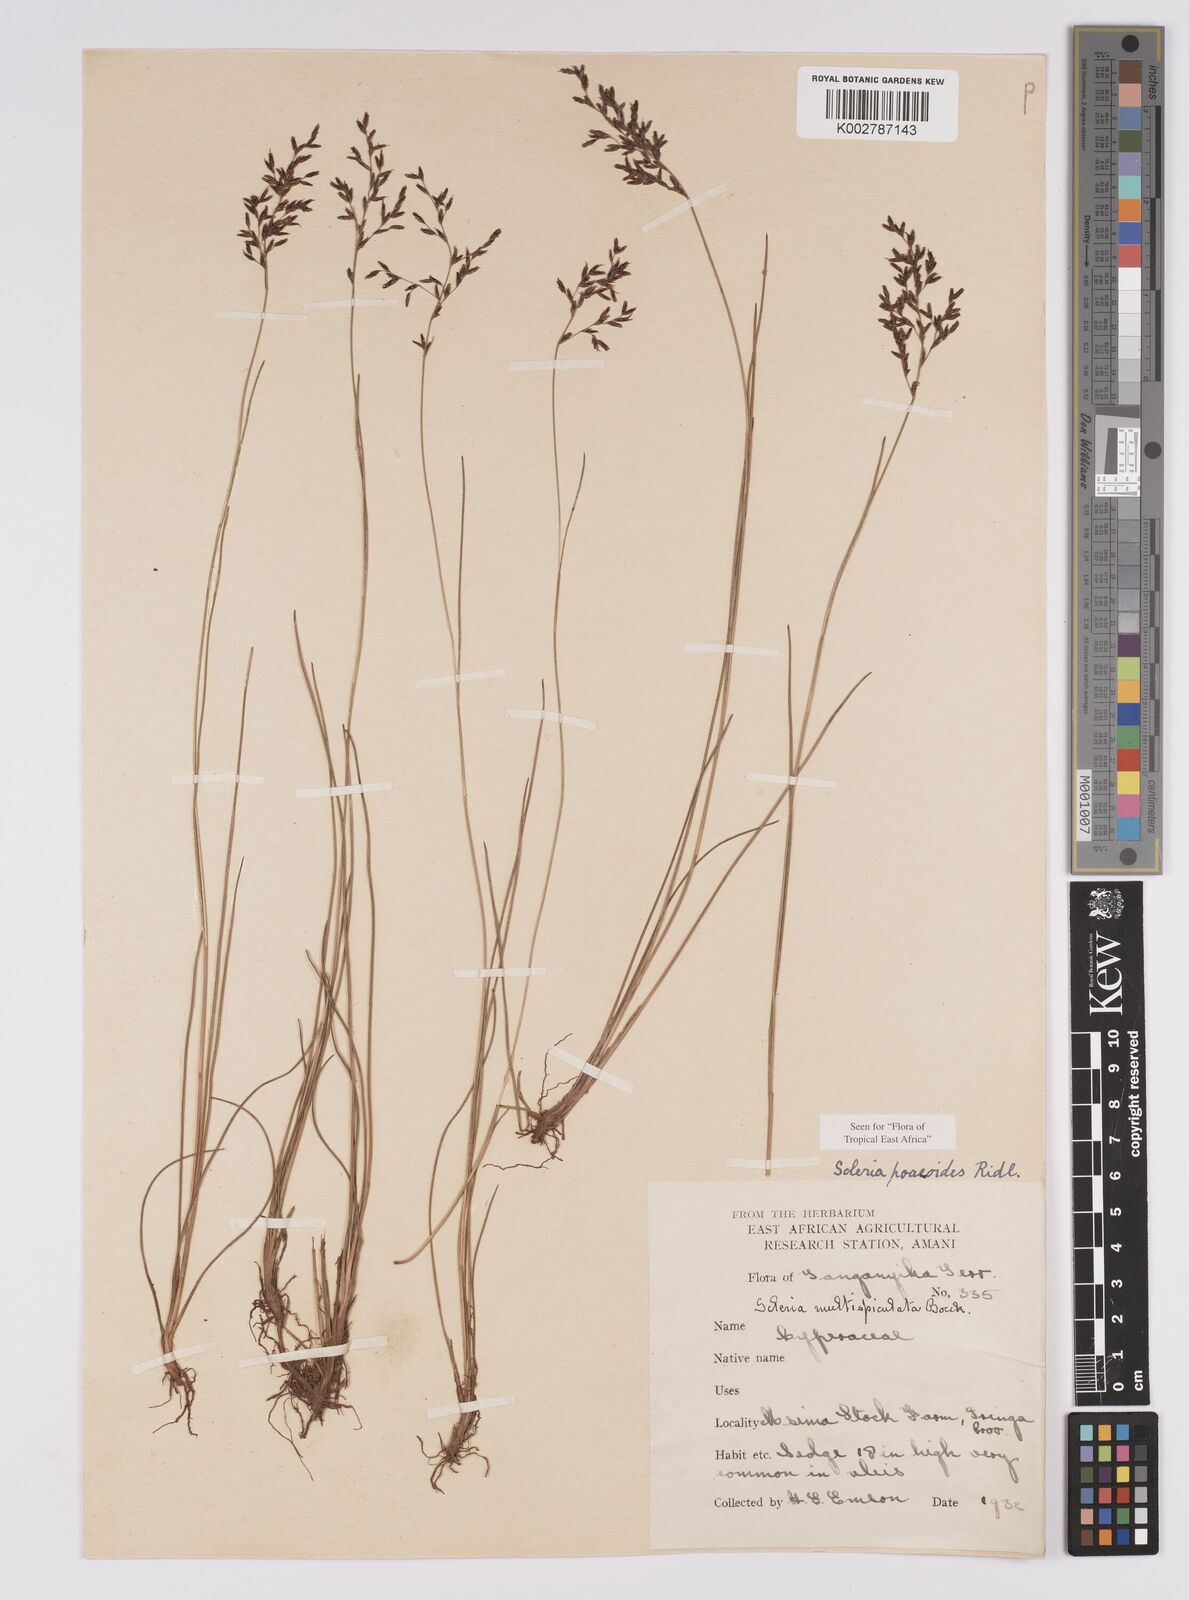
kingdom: Plantae
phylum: Tracheophyta
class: Liliopsida
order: Poales
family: Cyperaceae
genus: Scleria
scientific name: Scleria pooides
